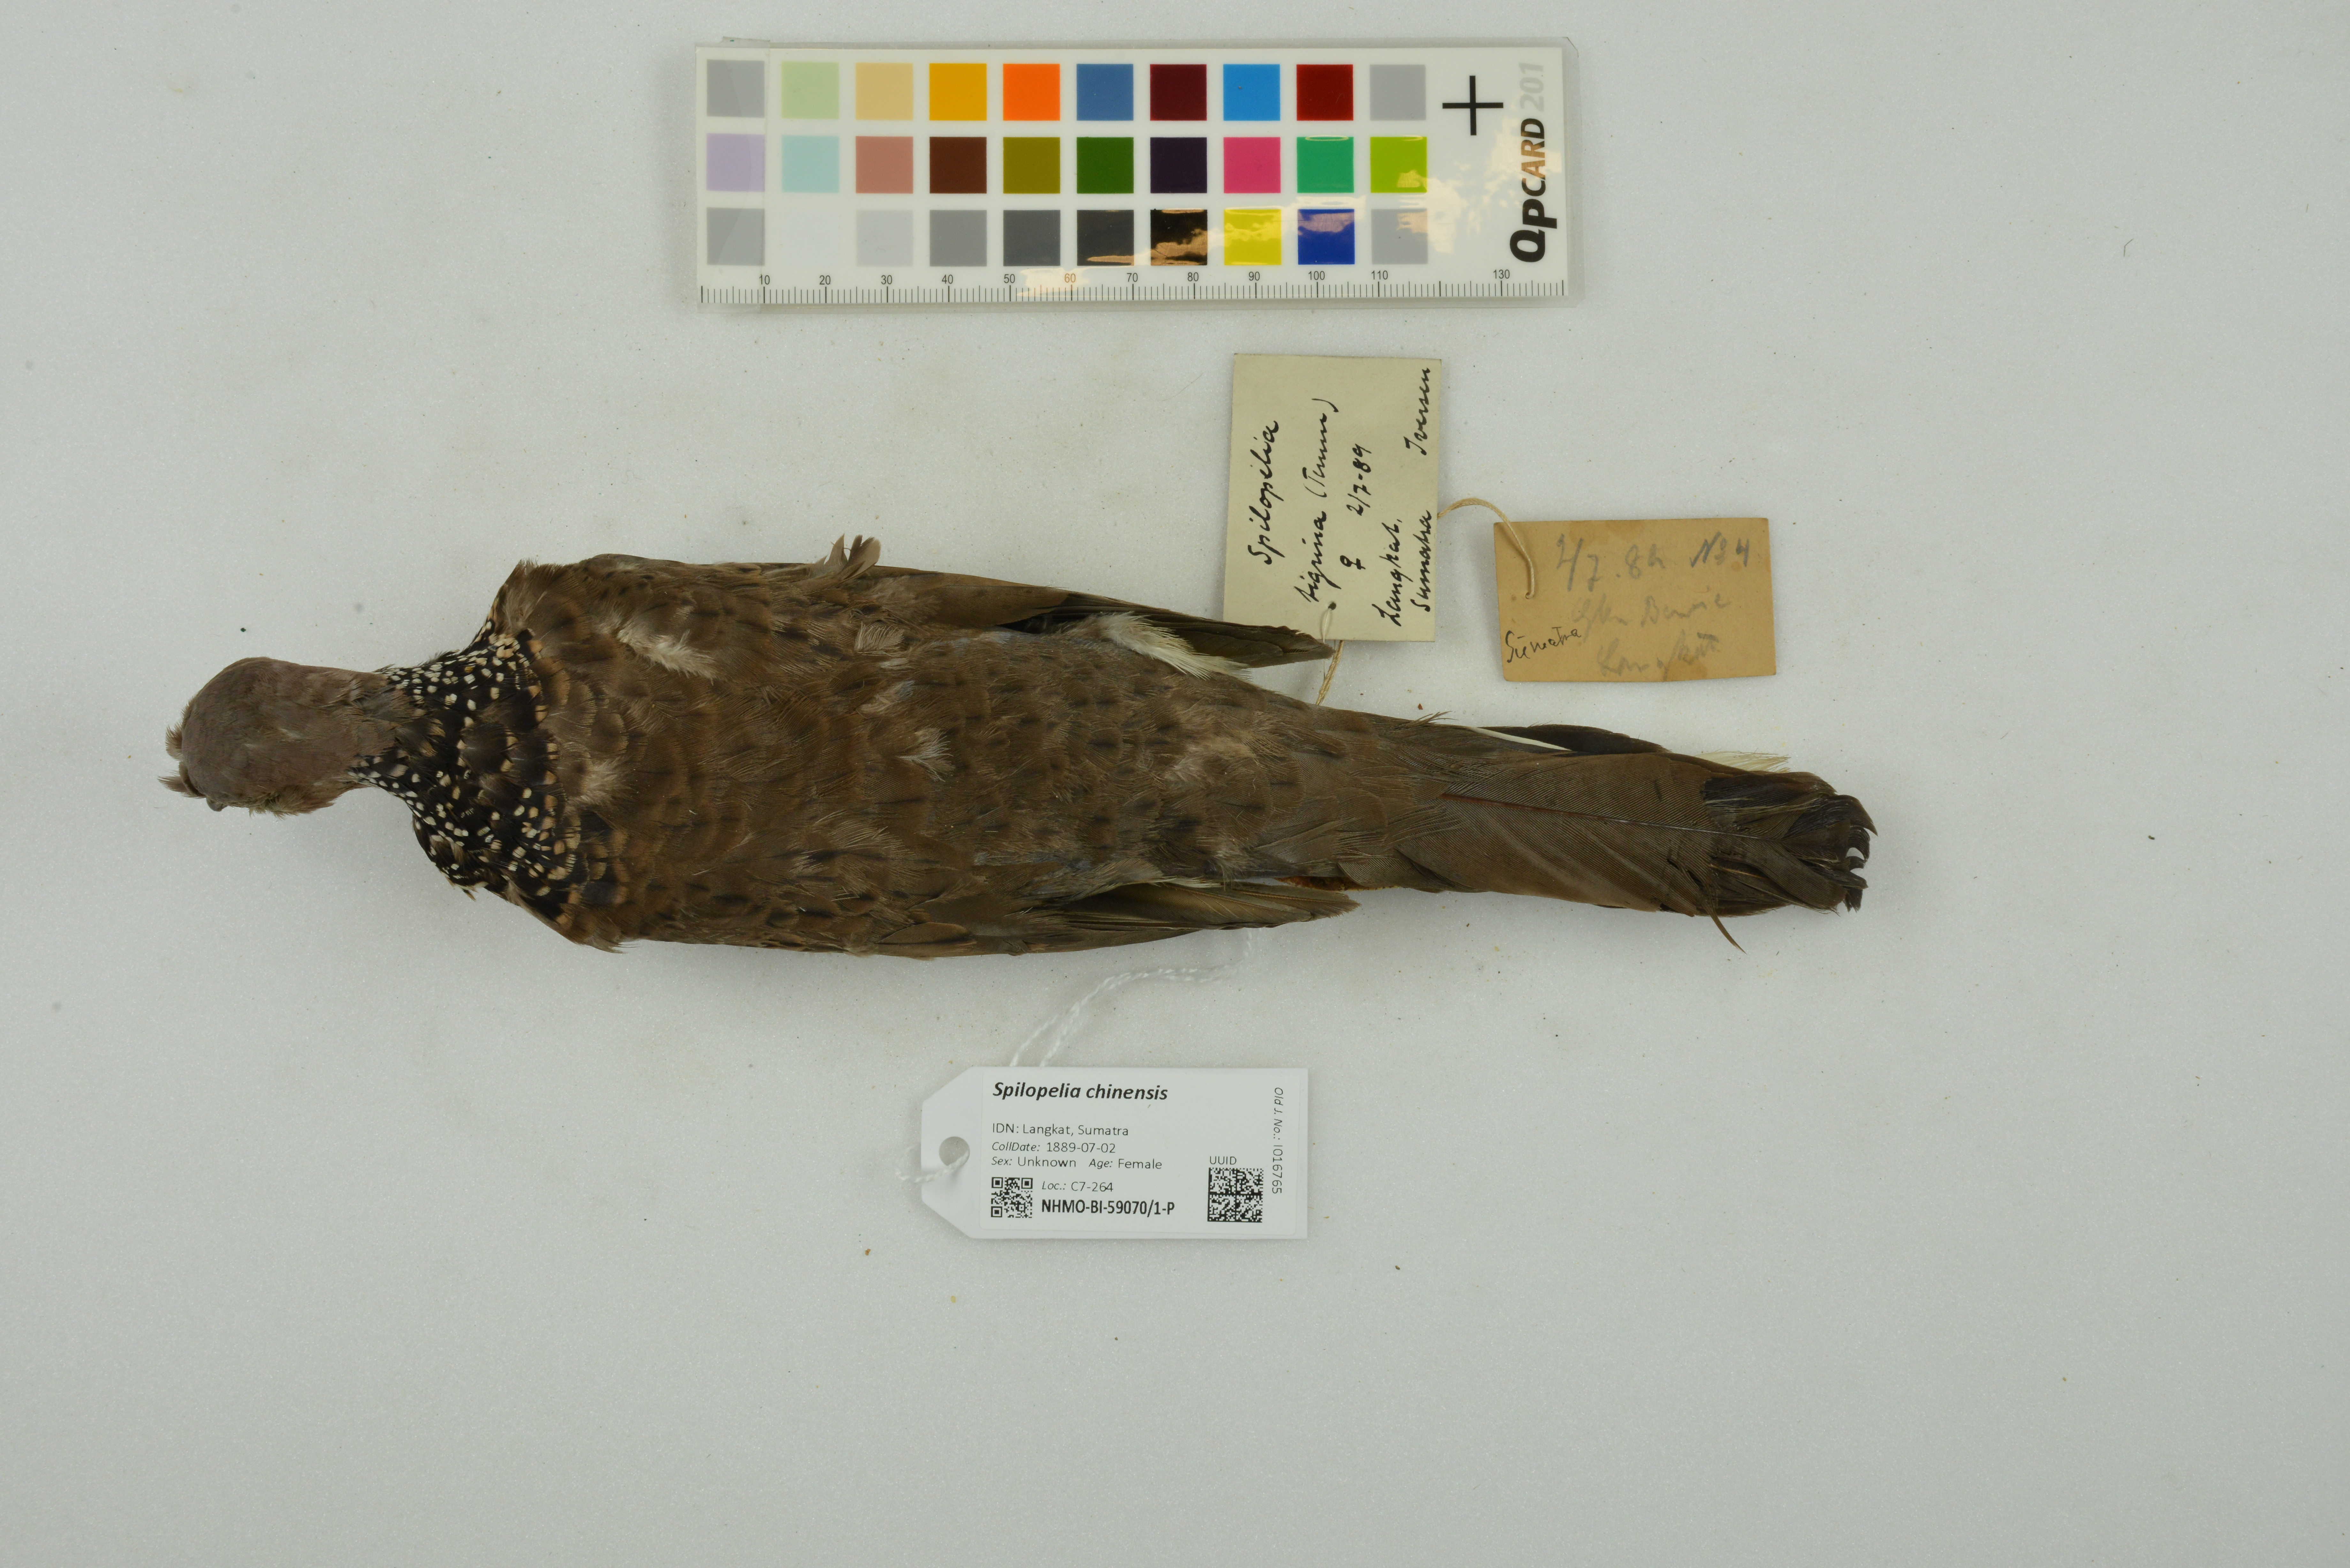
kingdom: Animalia
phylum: Chordata
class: Aves
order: Columbiformes
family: Columbidae
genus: Spilopelia
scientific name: Spilopelia chinensis
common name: Spotted dove
